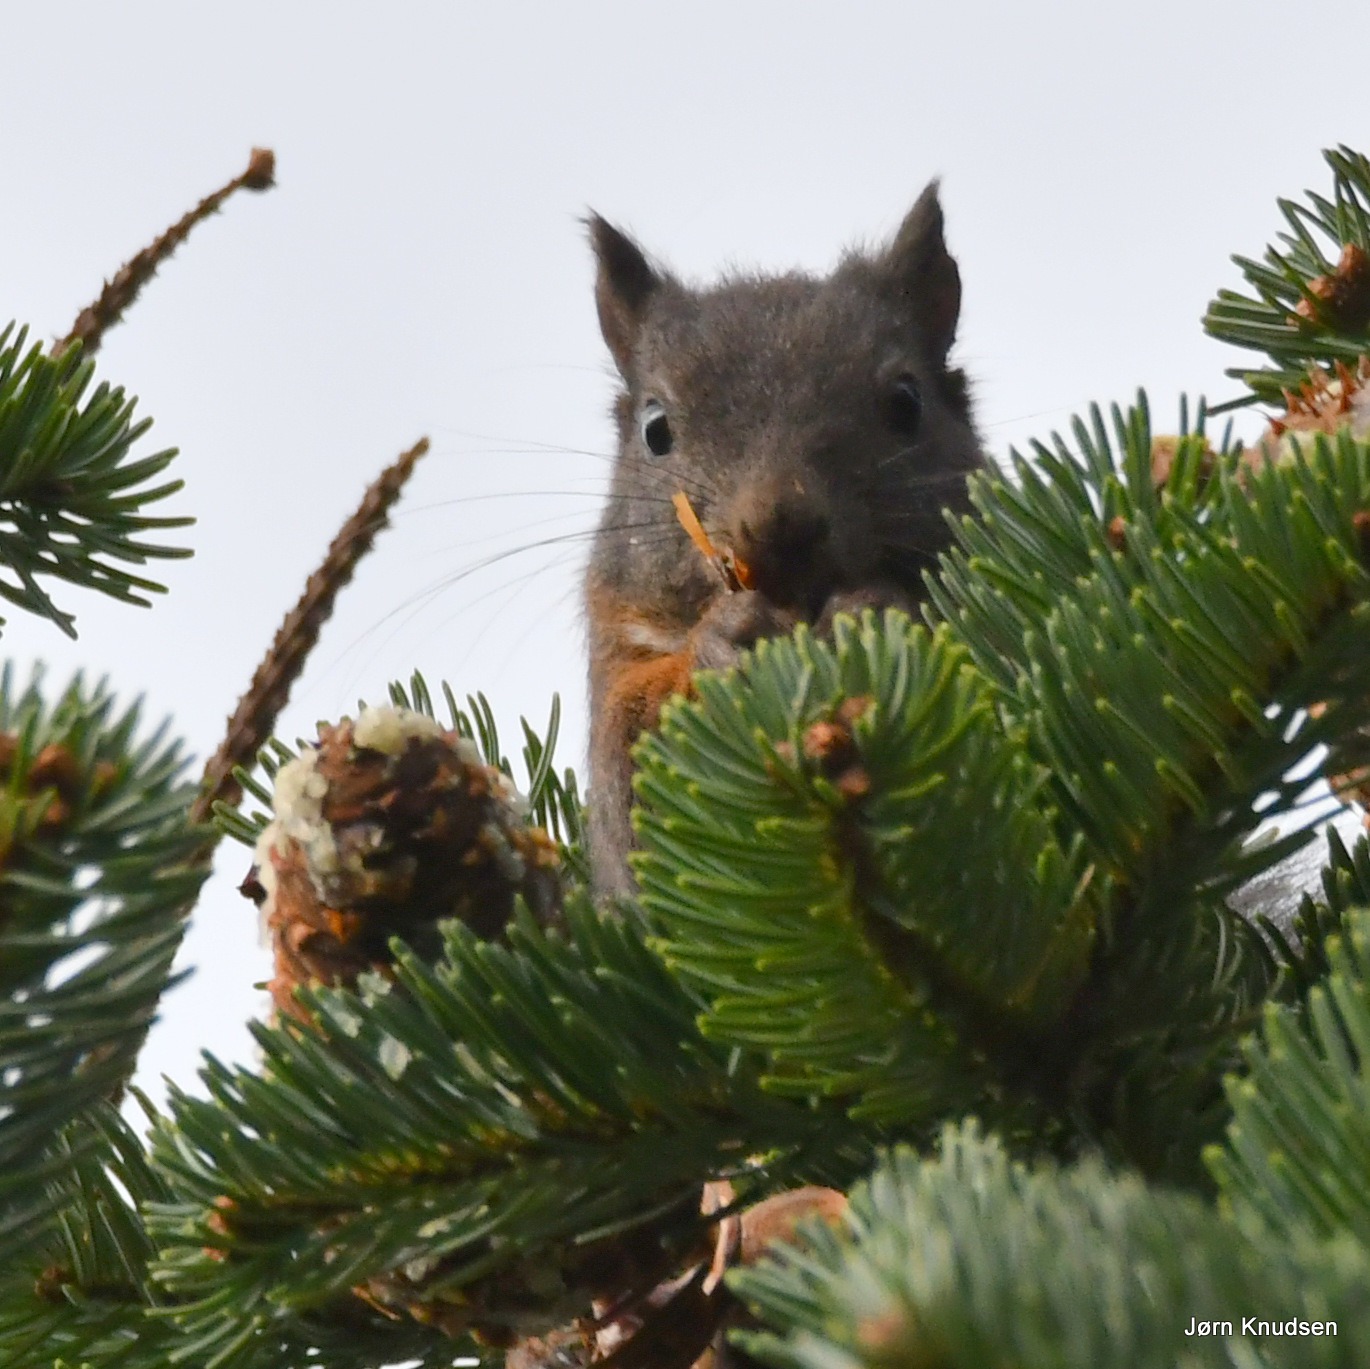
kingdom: Animalia
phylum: Chordata
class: Mammalia
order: Rodentia
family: Sciuridae
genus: Sciurus
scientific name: Sciurus vulgaris
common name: Egern
